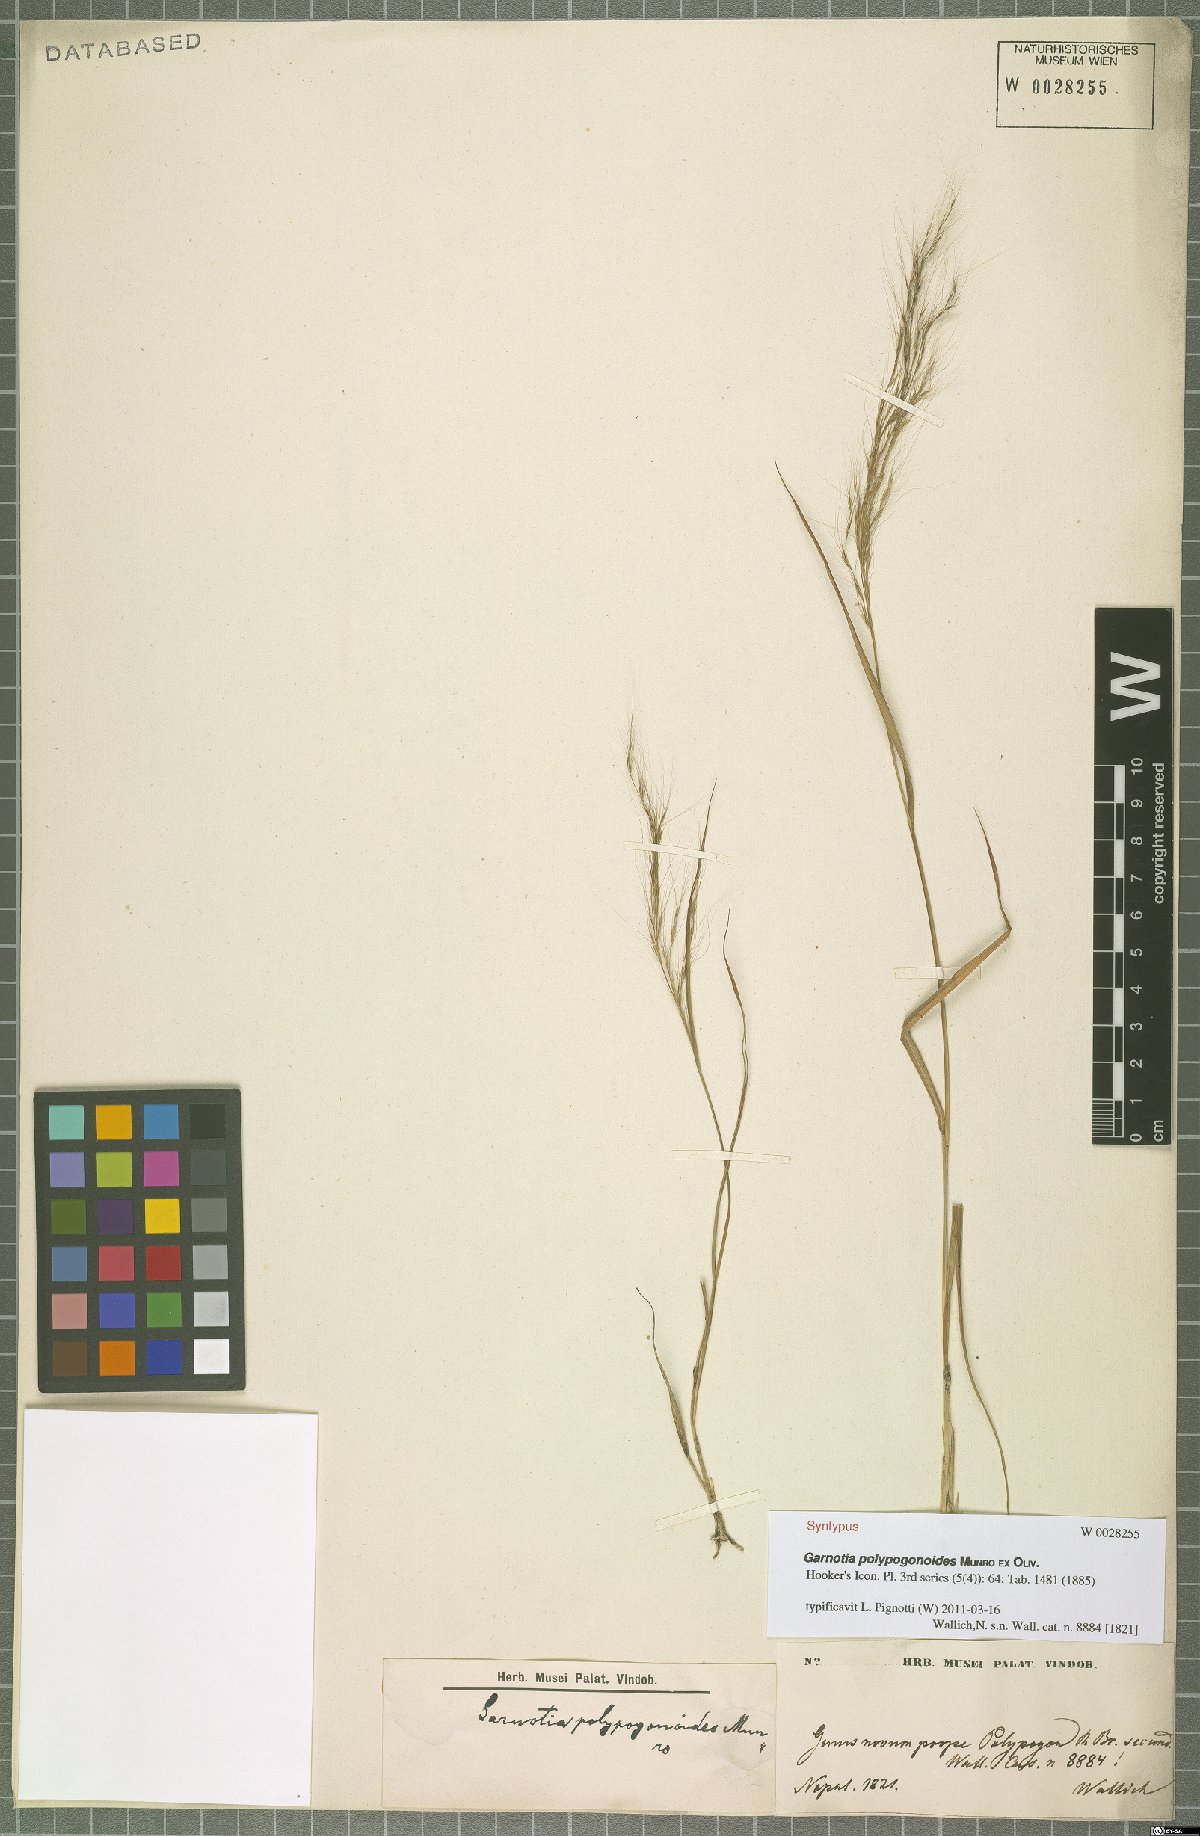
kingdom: Plantae
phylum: Tracheophyta
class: Liliopsida
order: Poales
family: Poaceae
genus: Garnotia
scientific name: Garnotia emodi
